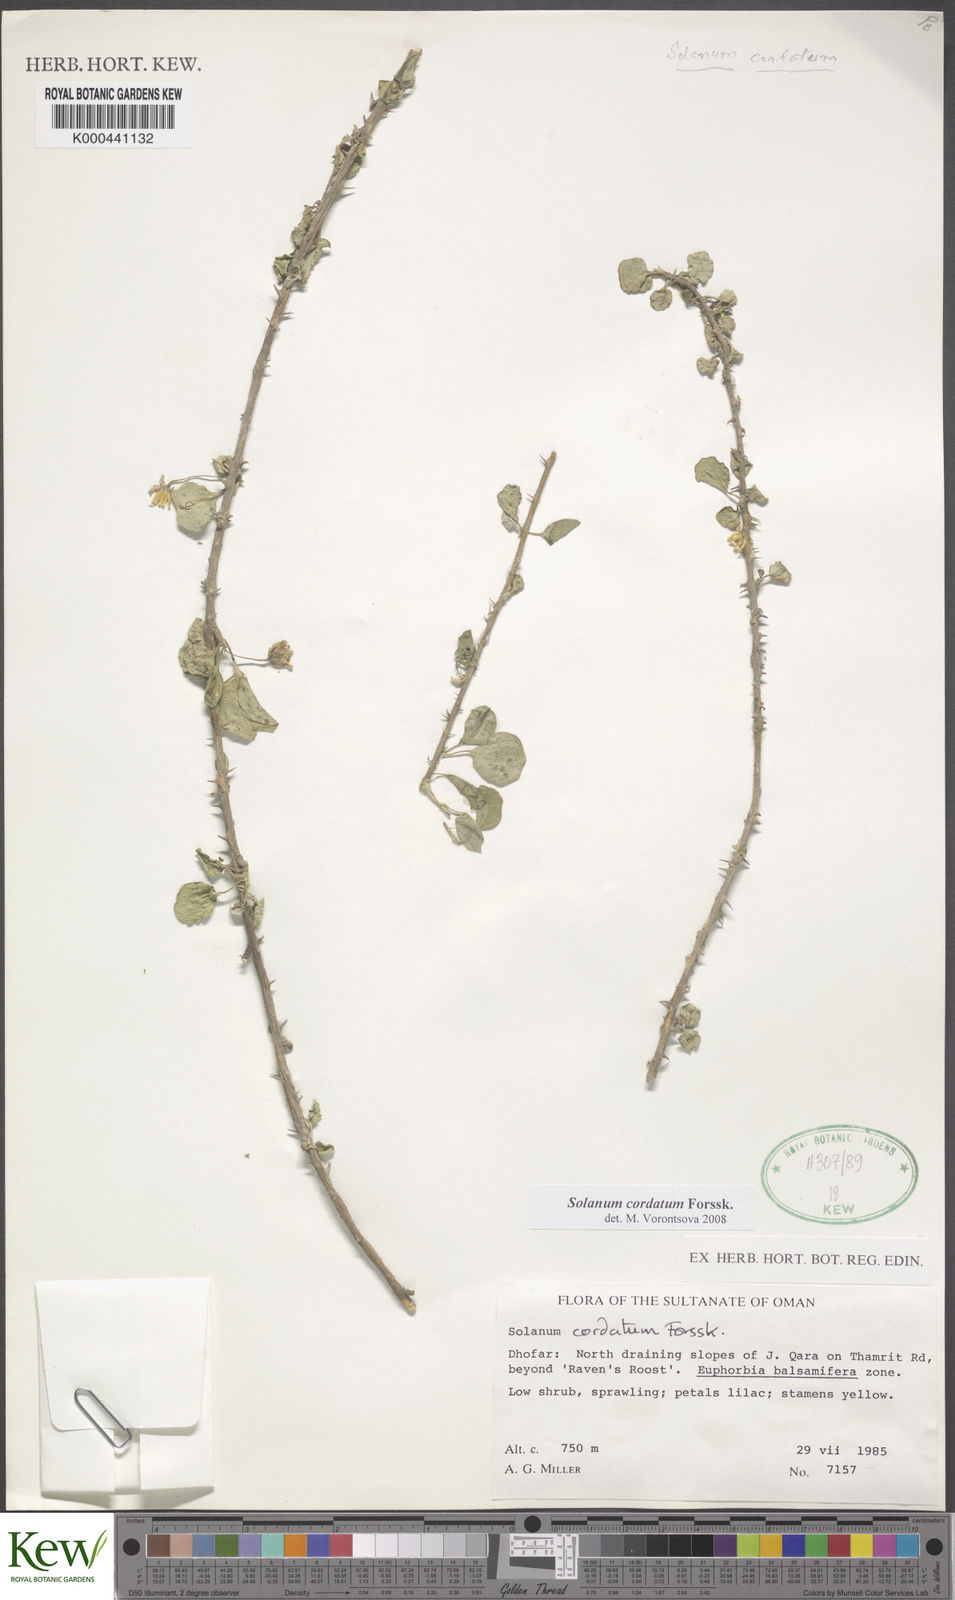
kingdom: Plantae
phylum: Tracheophyta
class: Magnoliopsida
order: Solanales
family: Solanaceae
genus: Solanum
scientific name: Solanum cordatum
